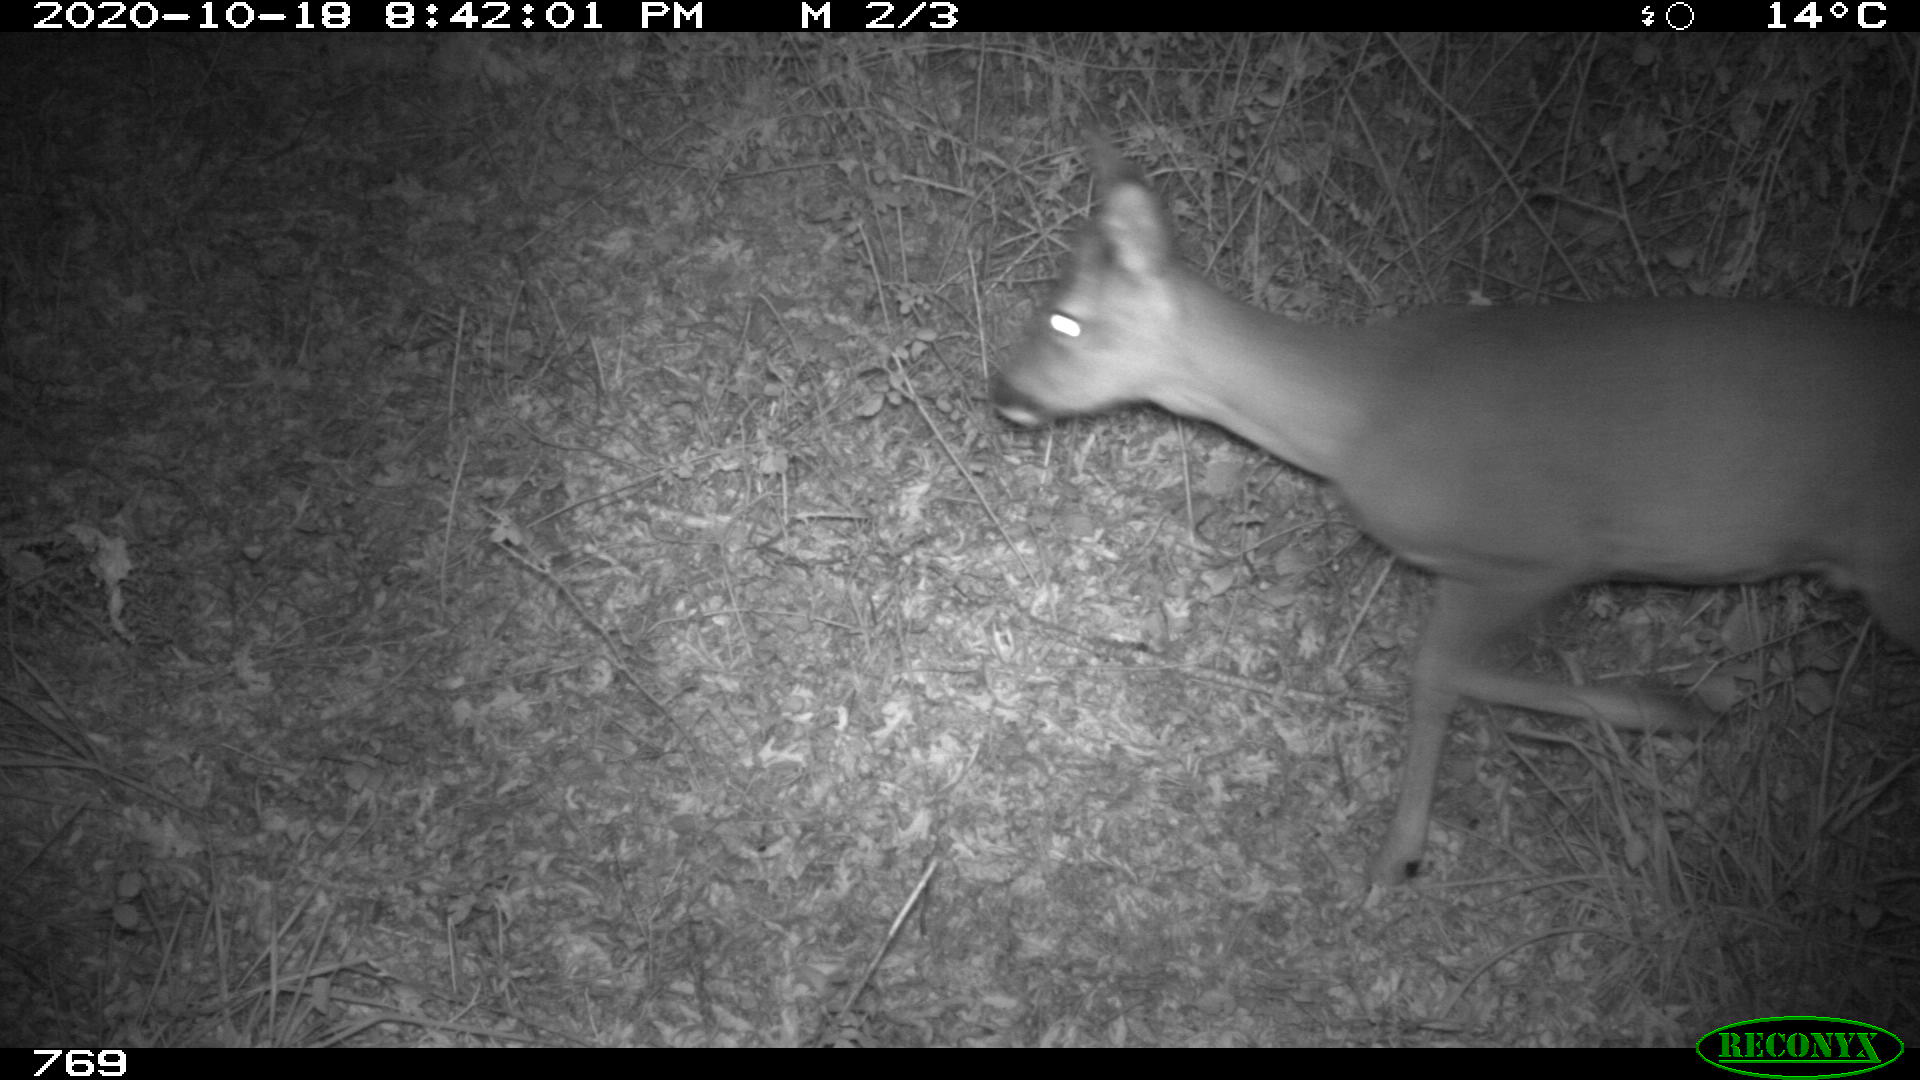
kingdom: Animalia
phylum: Chordata
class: Mammalia
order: Artiodactyla
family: Cervidae
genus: Capreolus
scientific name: Capreolus capreolus
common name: Western roe deer
